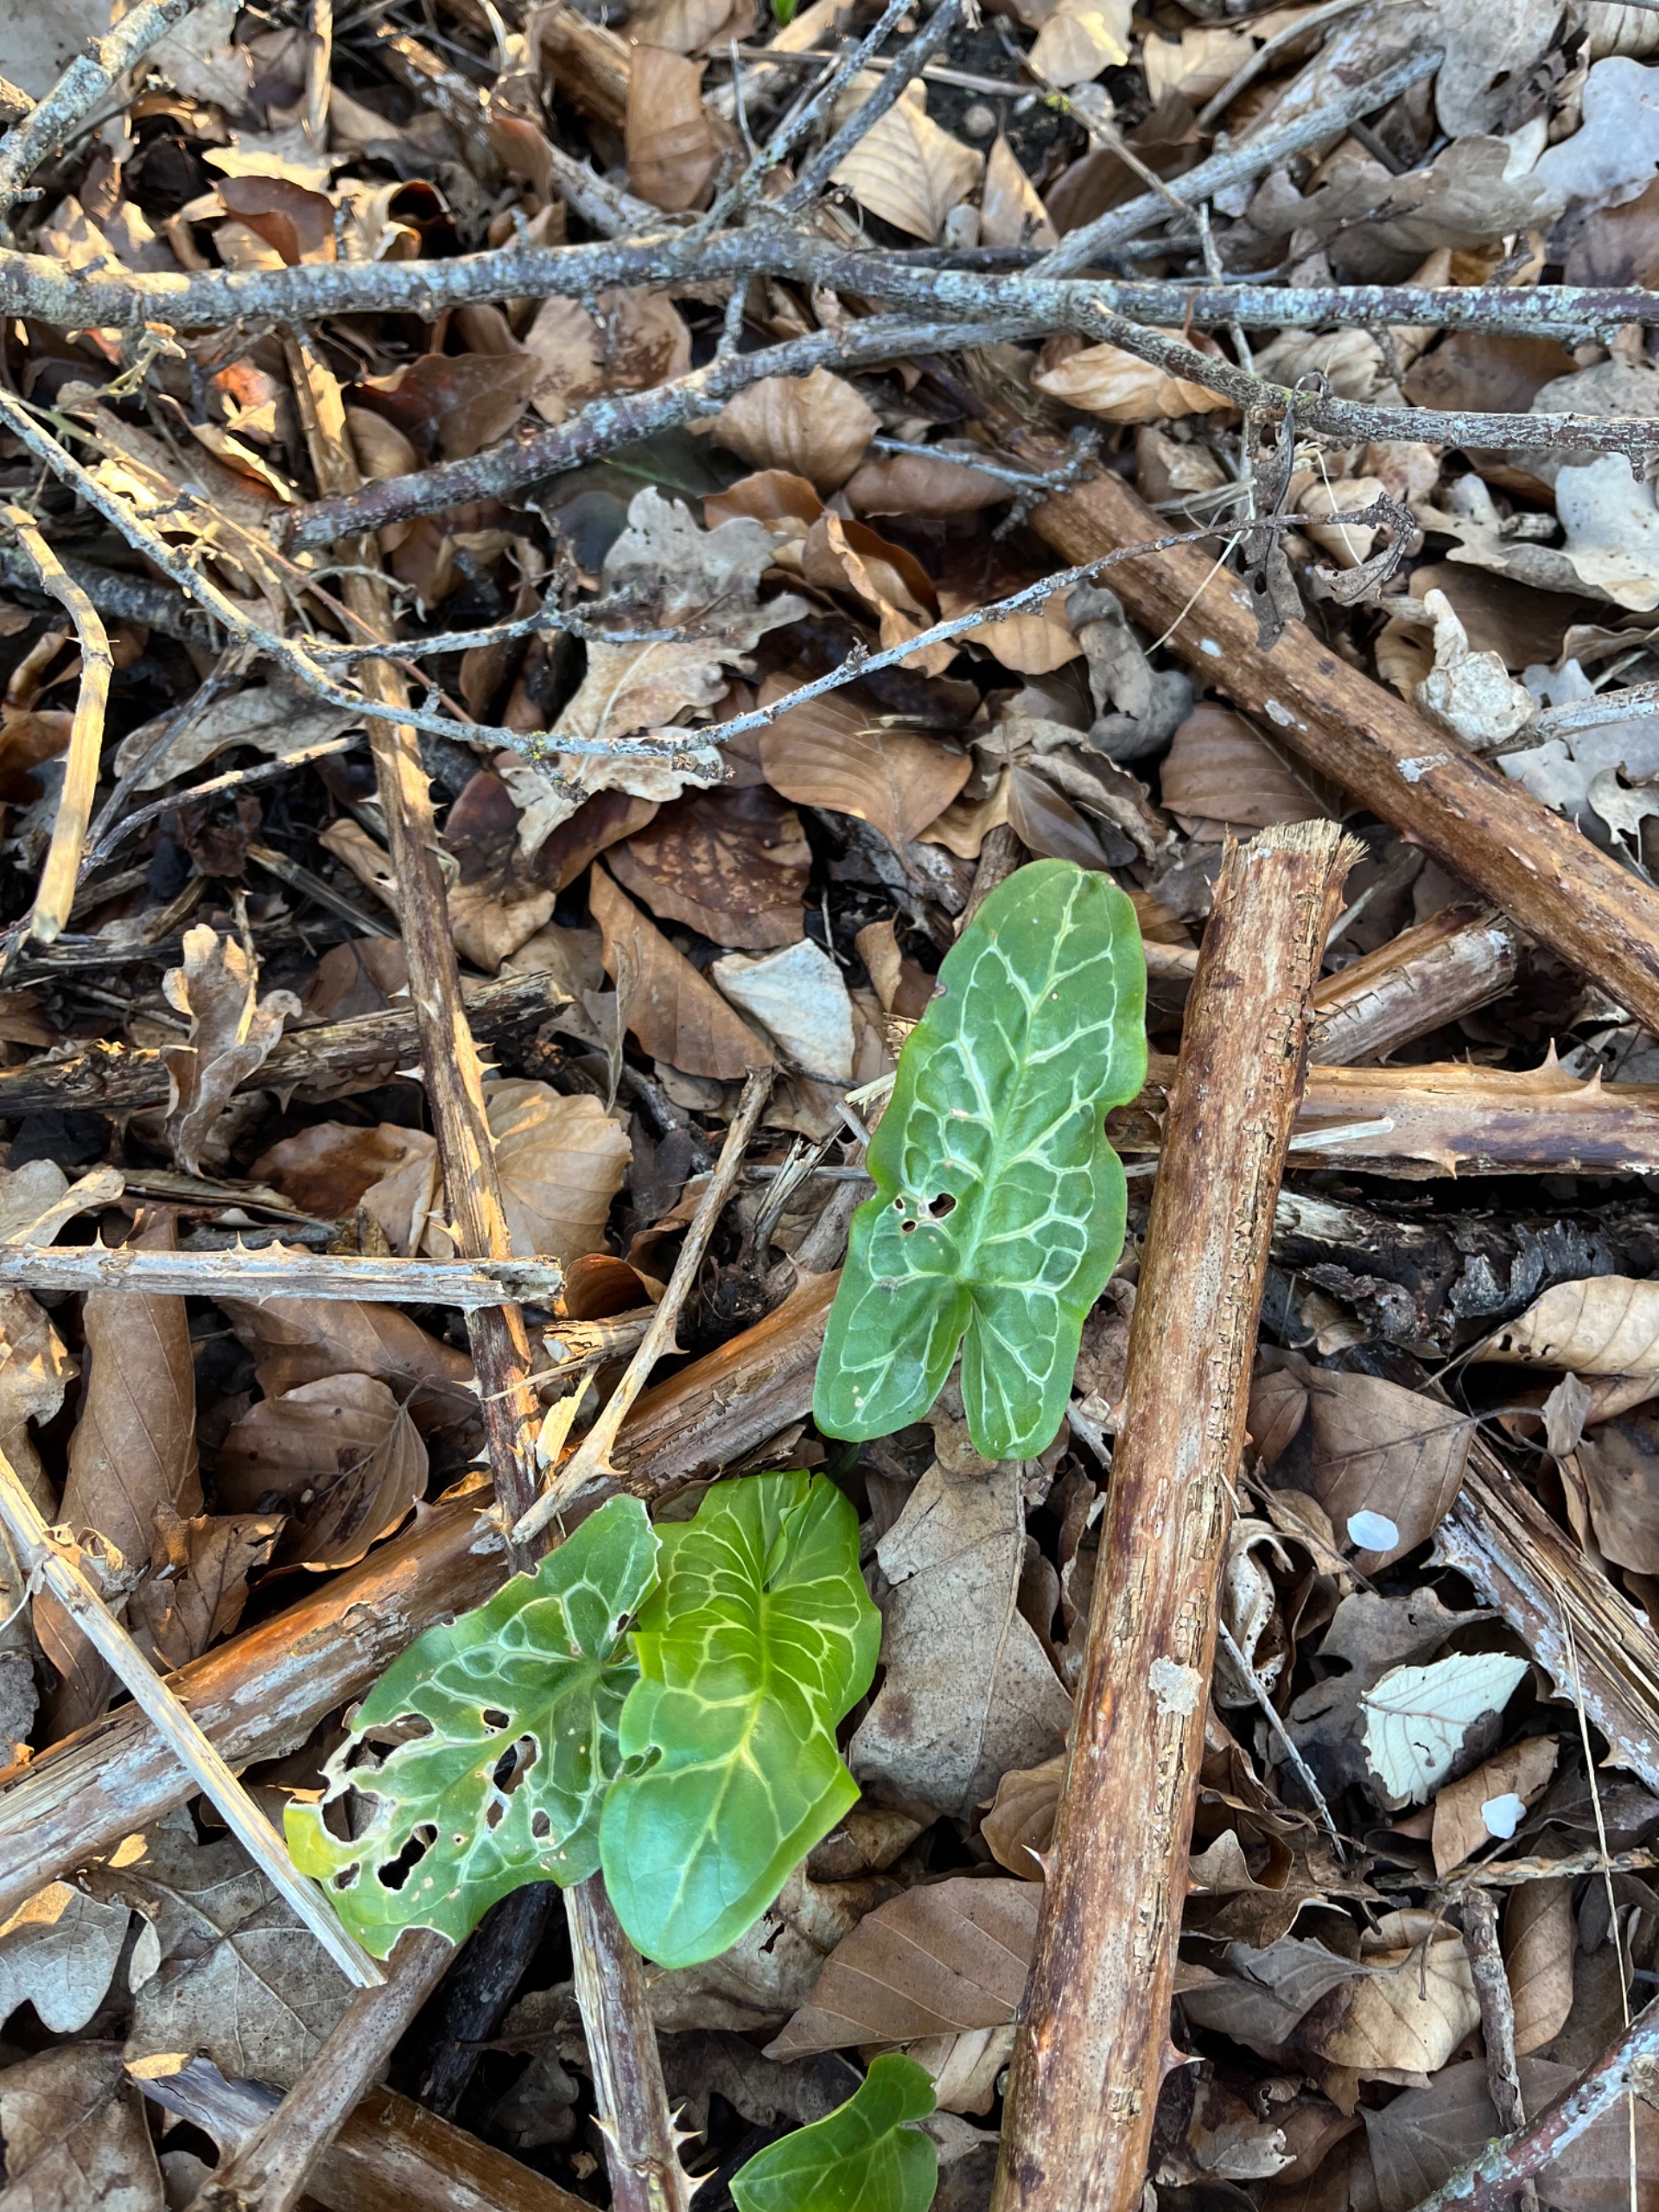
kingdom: Plantae
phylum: Tracheophyta
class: Liliopsida
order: Alismatales
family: Araceae
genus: Arum
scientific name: Arum italicum
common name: Italiensk arum
